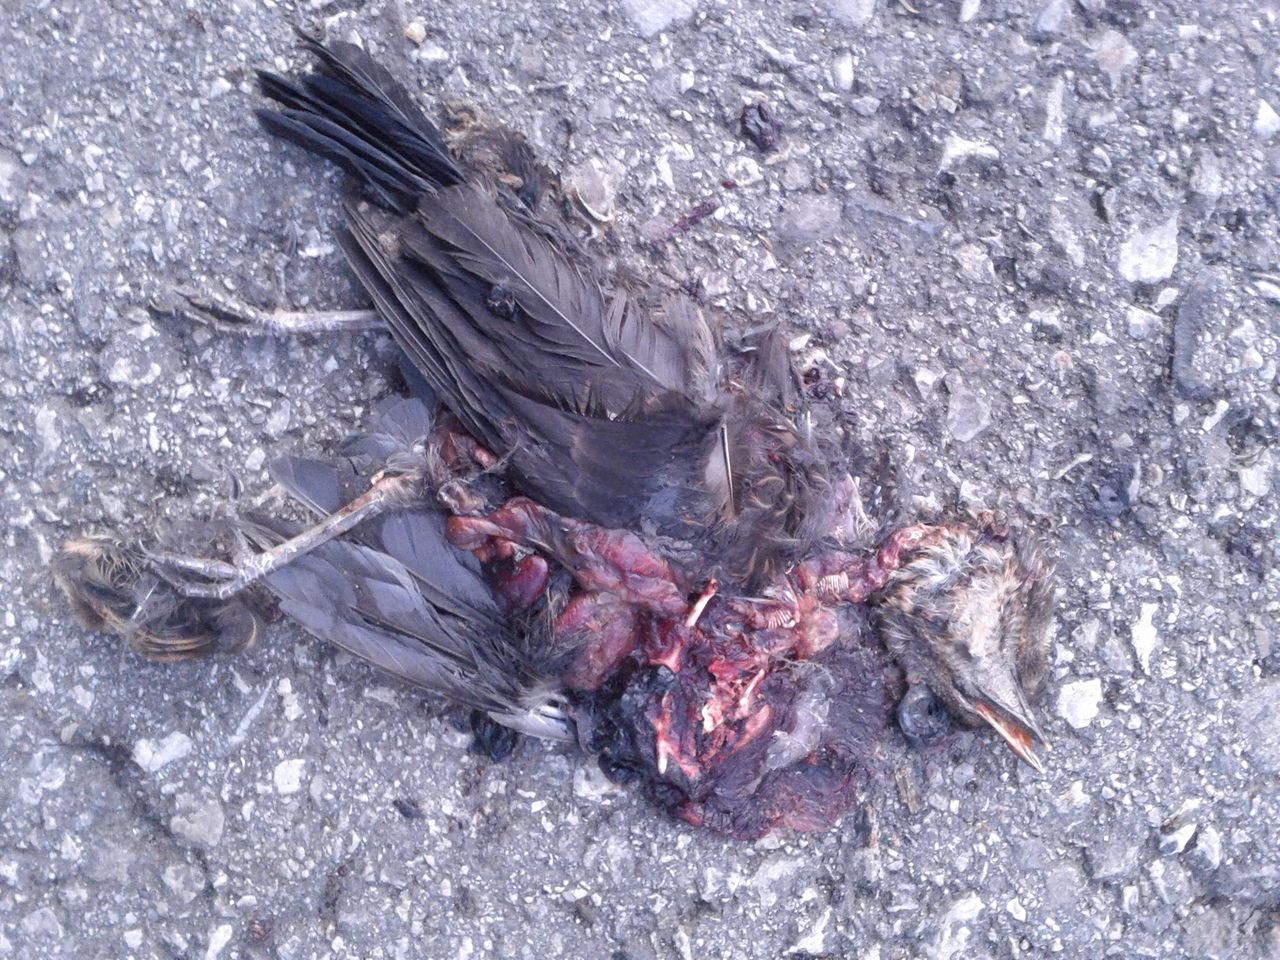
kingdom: Animalia
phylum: Chordata
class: Aves
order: Passeriformes
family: Turdidae
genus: Turdus
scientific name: Turdus merula
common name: Common blackbird
